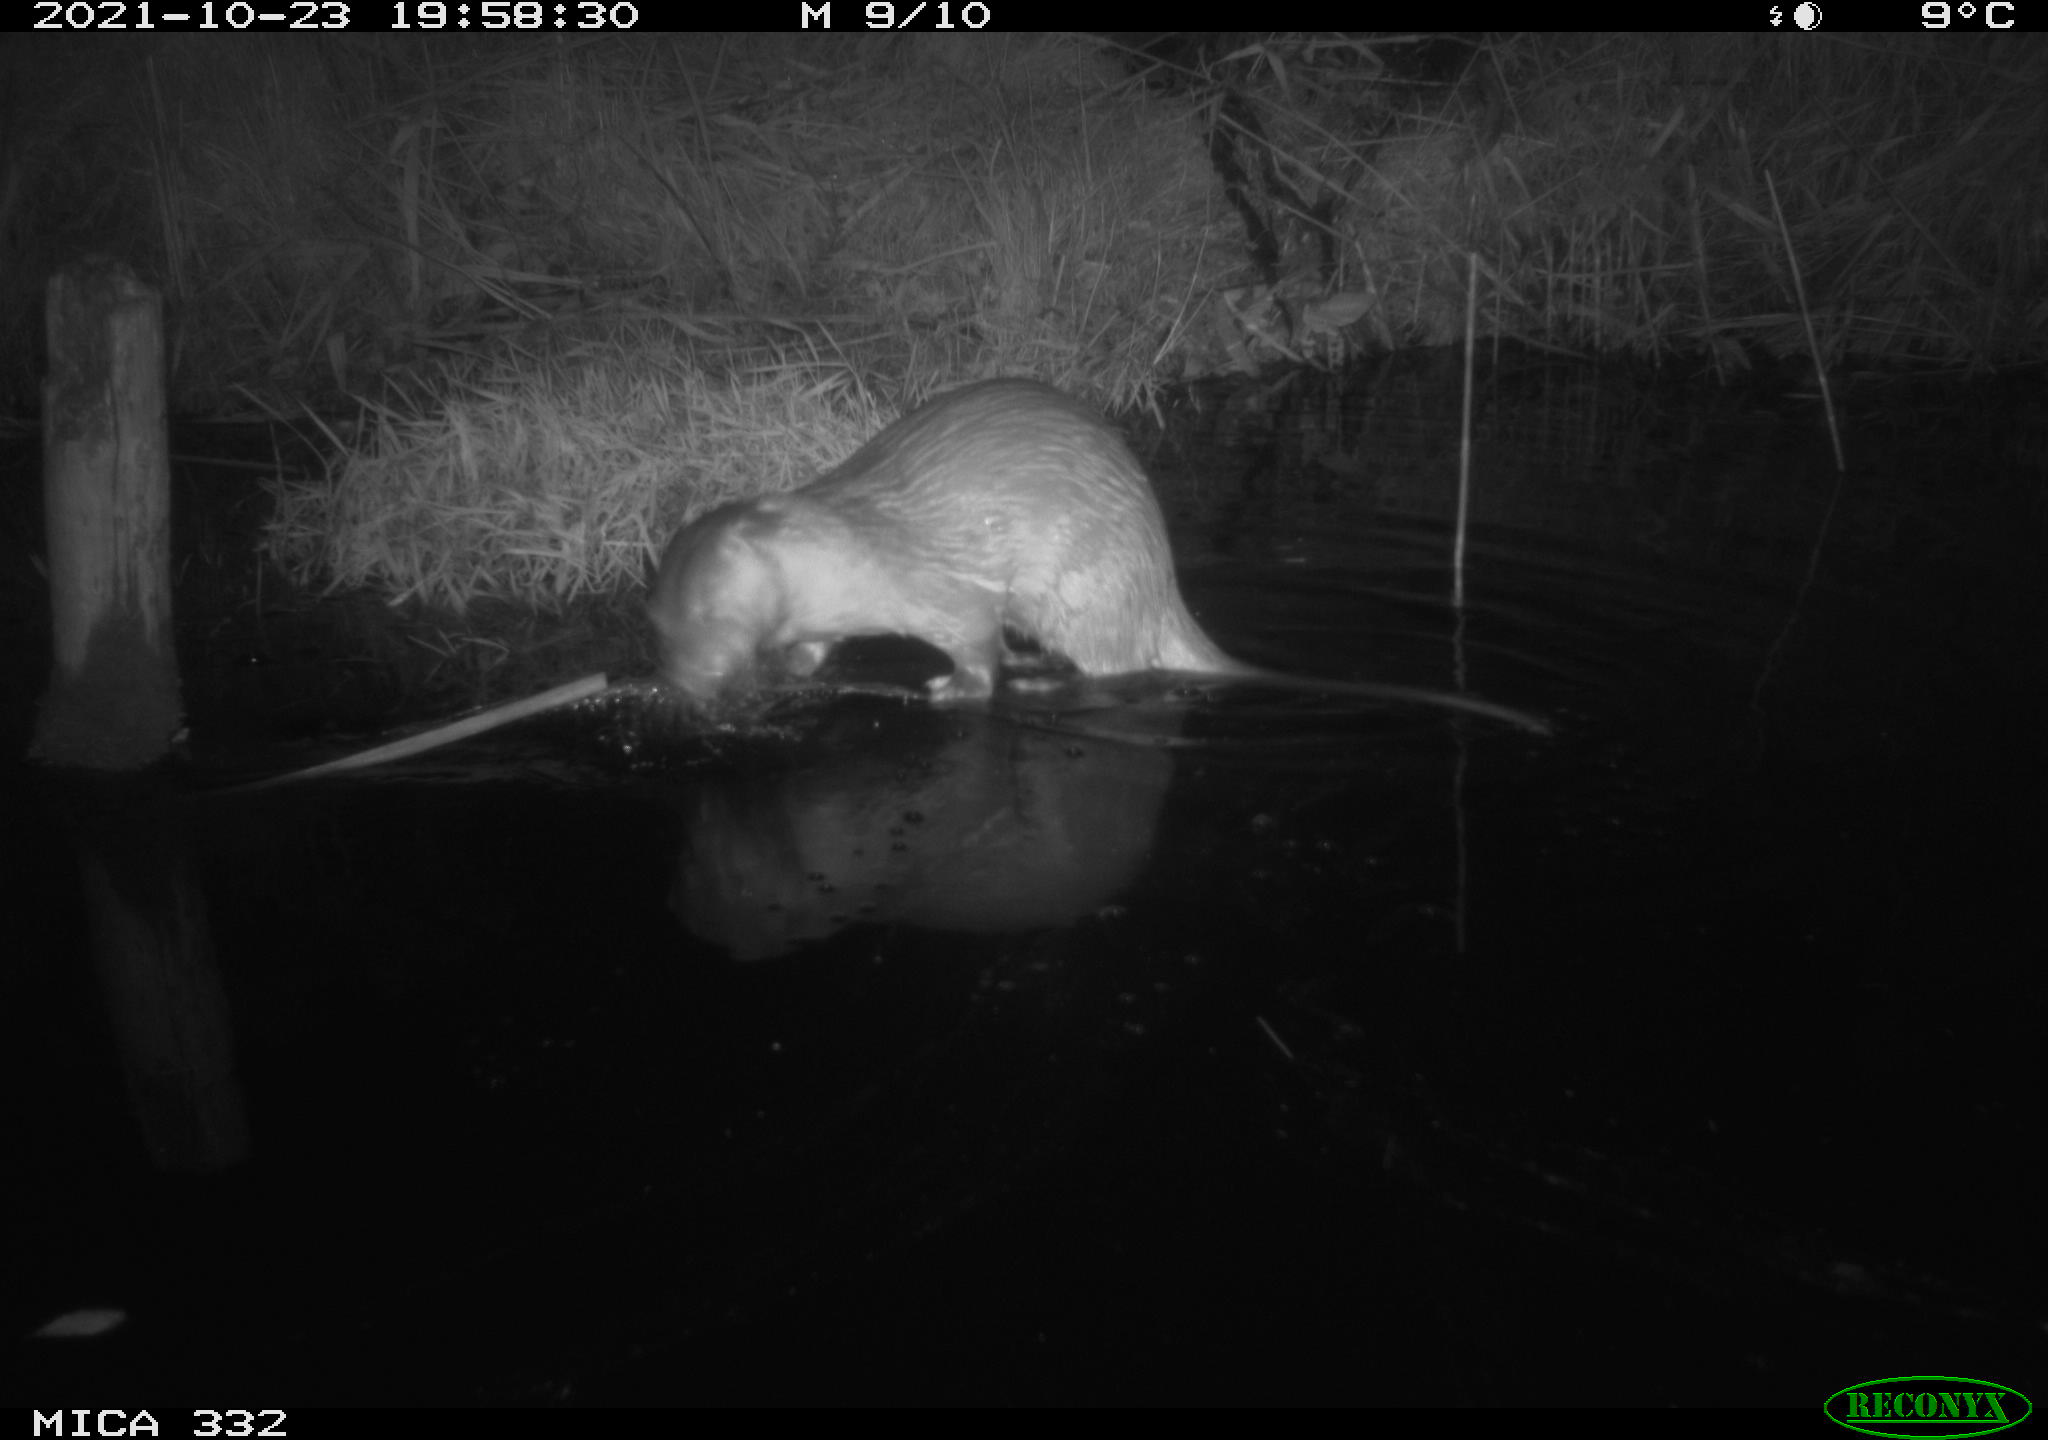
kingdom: Animalia
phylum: Chordata
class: Mammalia
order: Carnivora
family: Mustelidae
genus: Lutra
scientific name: Lutra lutra
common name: European otter
